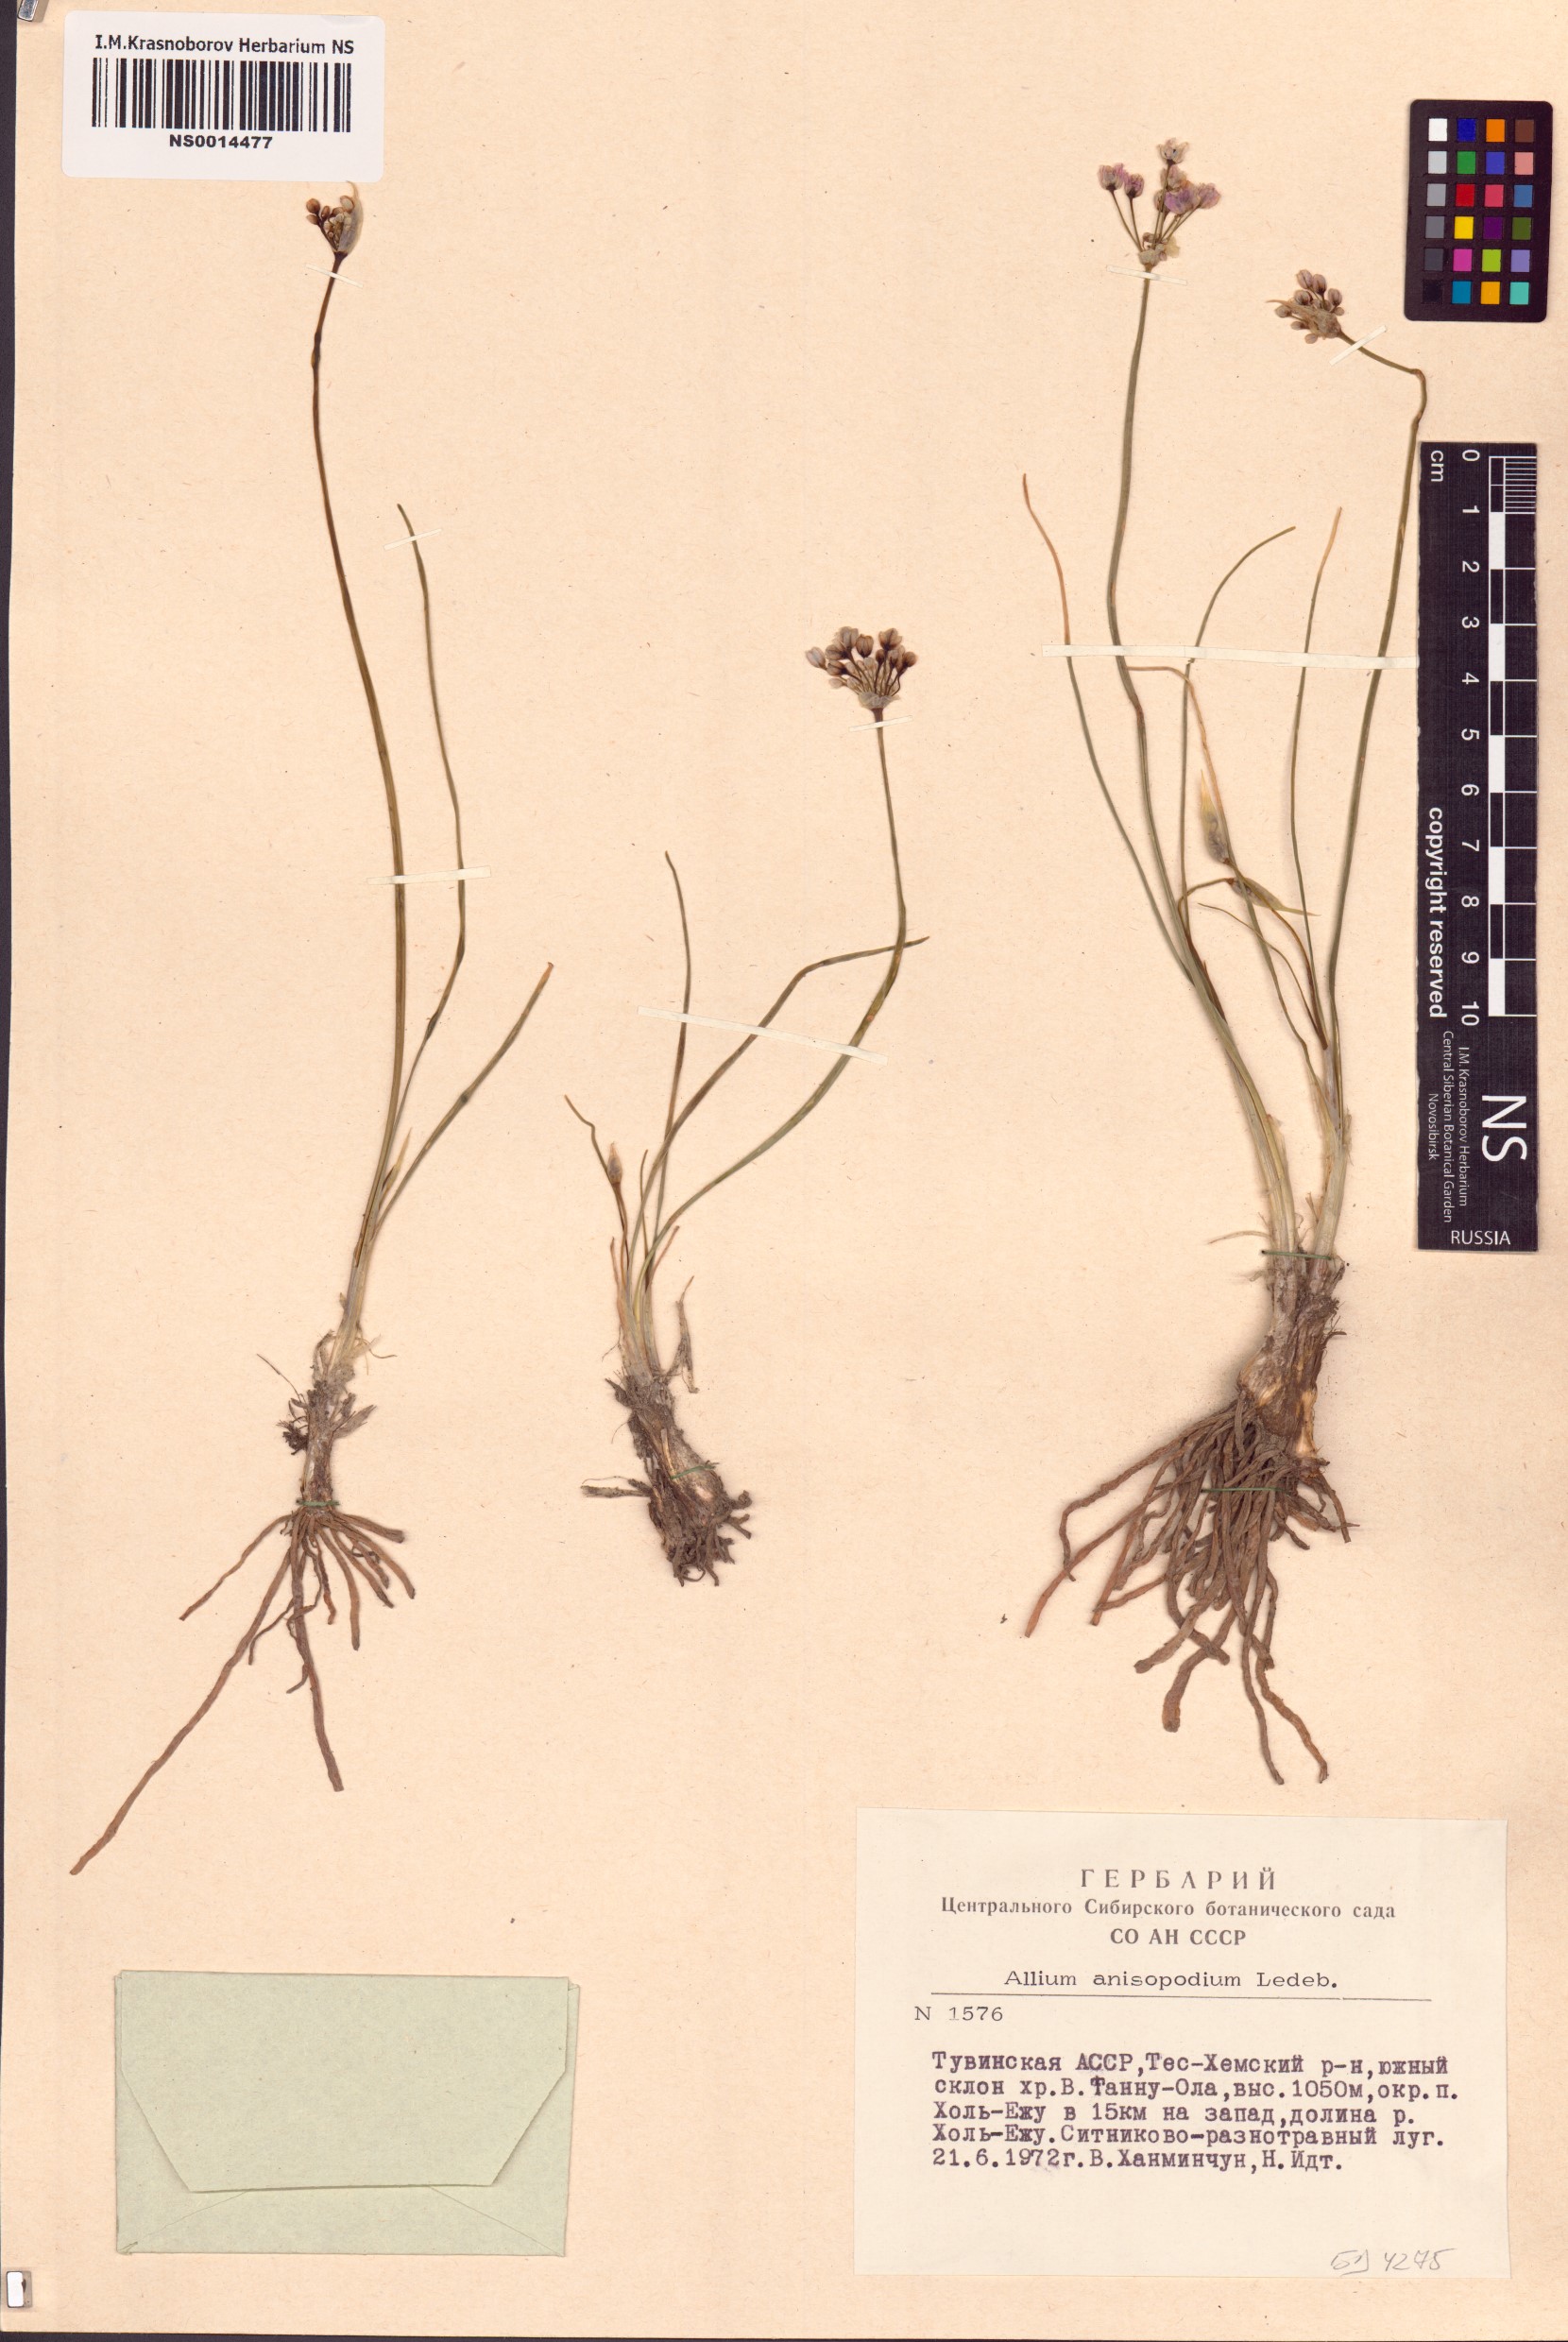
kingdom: Plantae
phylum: Tracheophyta
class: Liliopsida
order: Asparagales
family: Amaryllidaceae
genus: Allium
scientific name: Allium anisopodium
